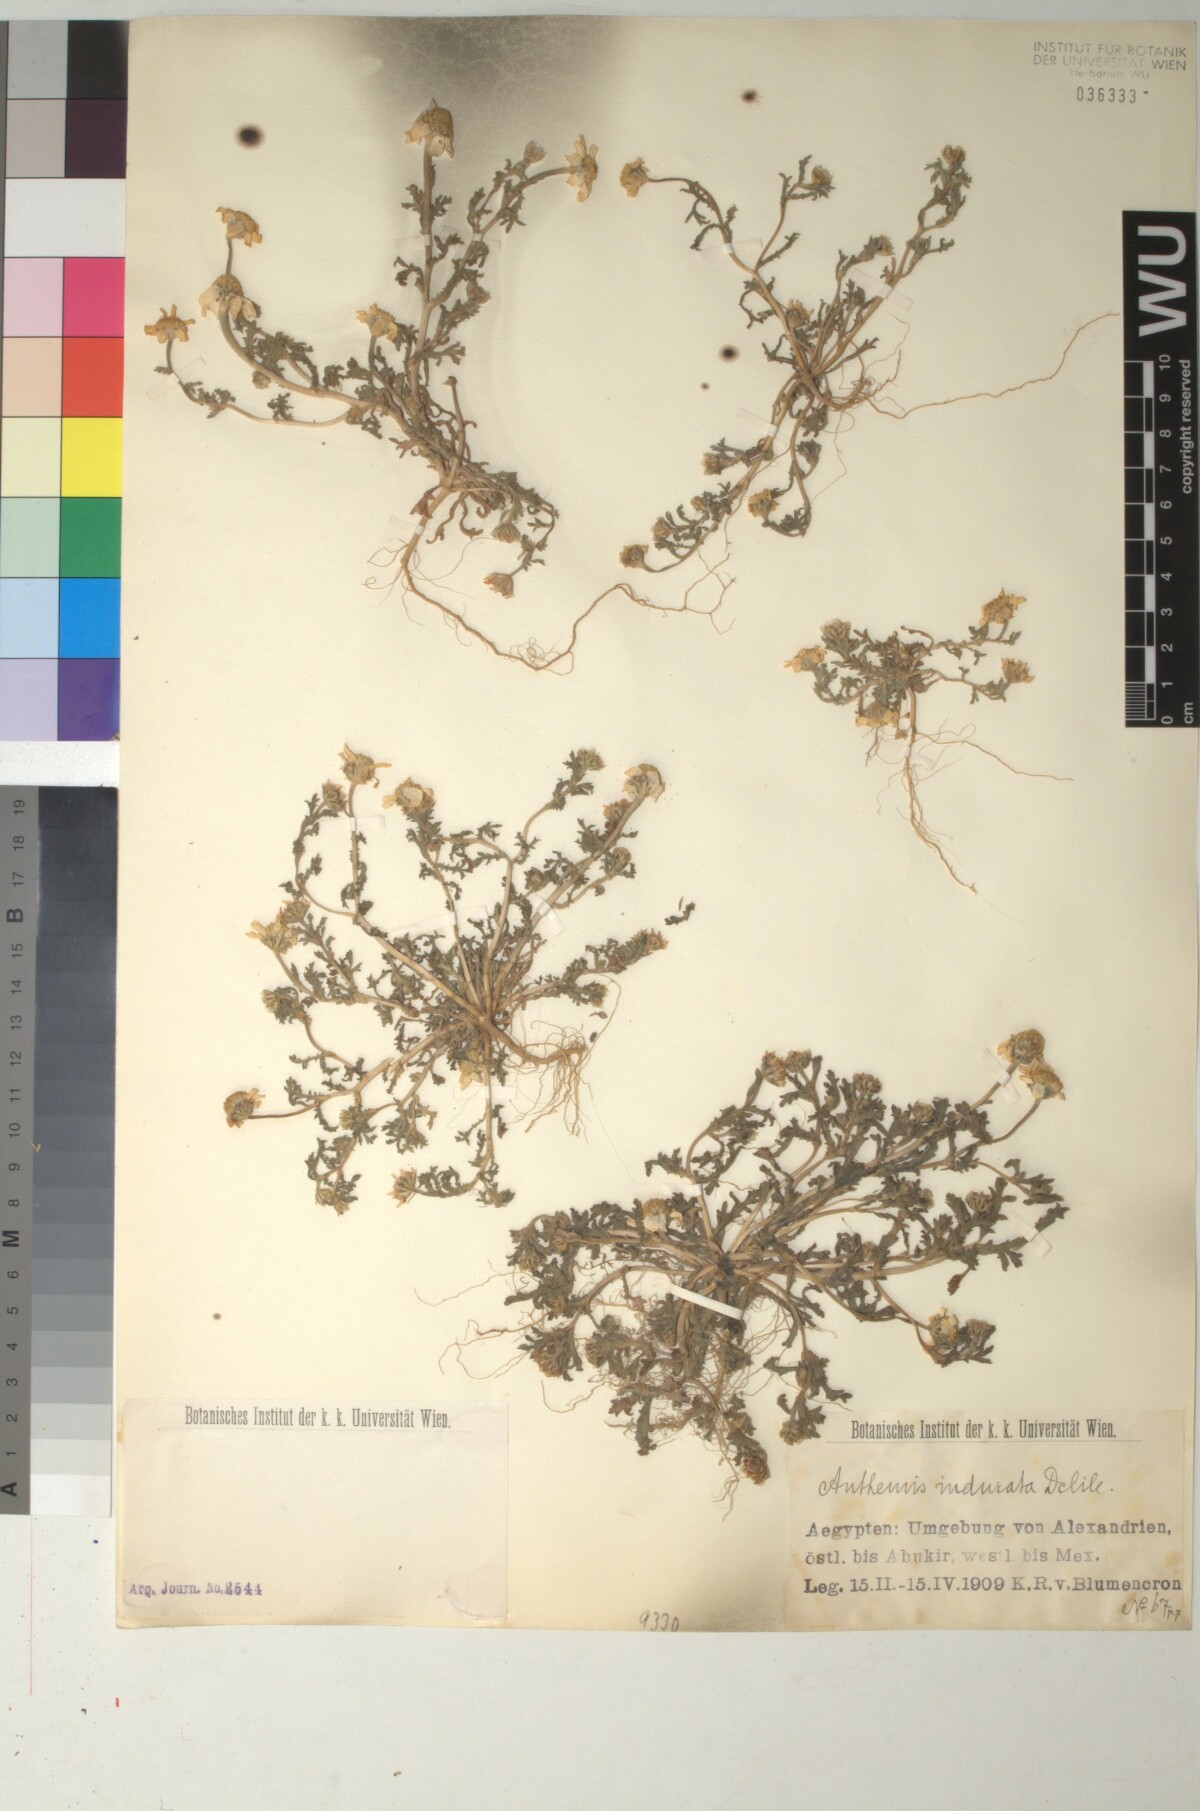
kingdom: Plantae
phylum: Tracheophyta
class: Magnoliopsida
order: Asterales
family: Asteraceae
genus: Anthemis
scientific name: Anthemis indurata
